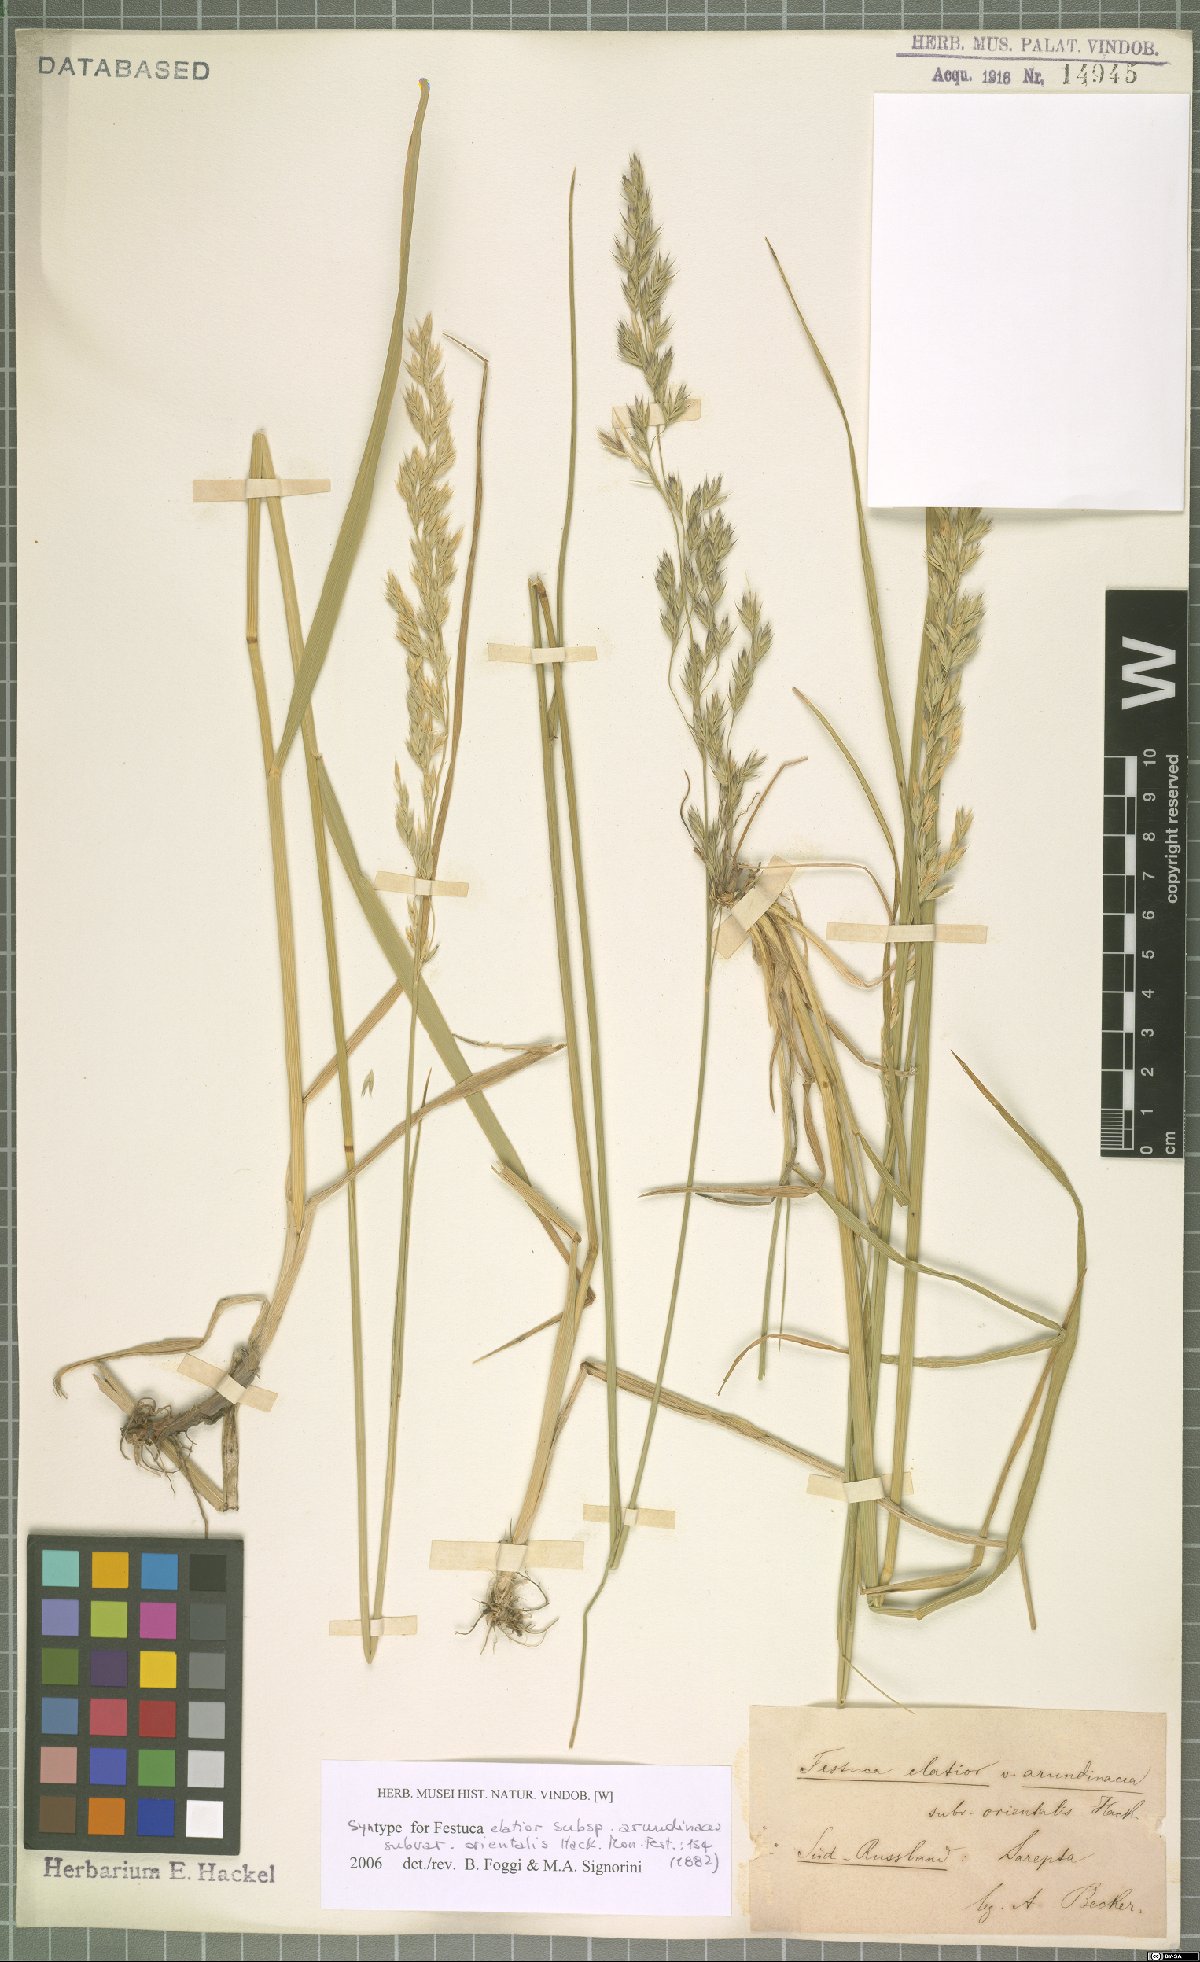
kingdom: Plantae
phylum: Tracheophyta
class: Liliopsida
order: Poales
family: Poaceae
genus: Lolium
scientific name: Lolium arundinaceum
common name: Reed fescue
